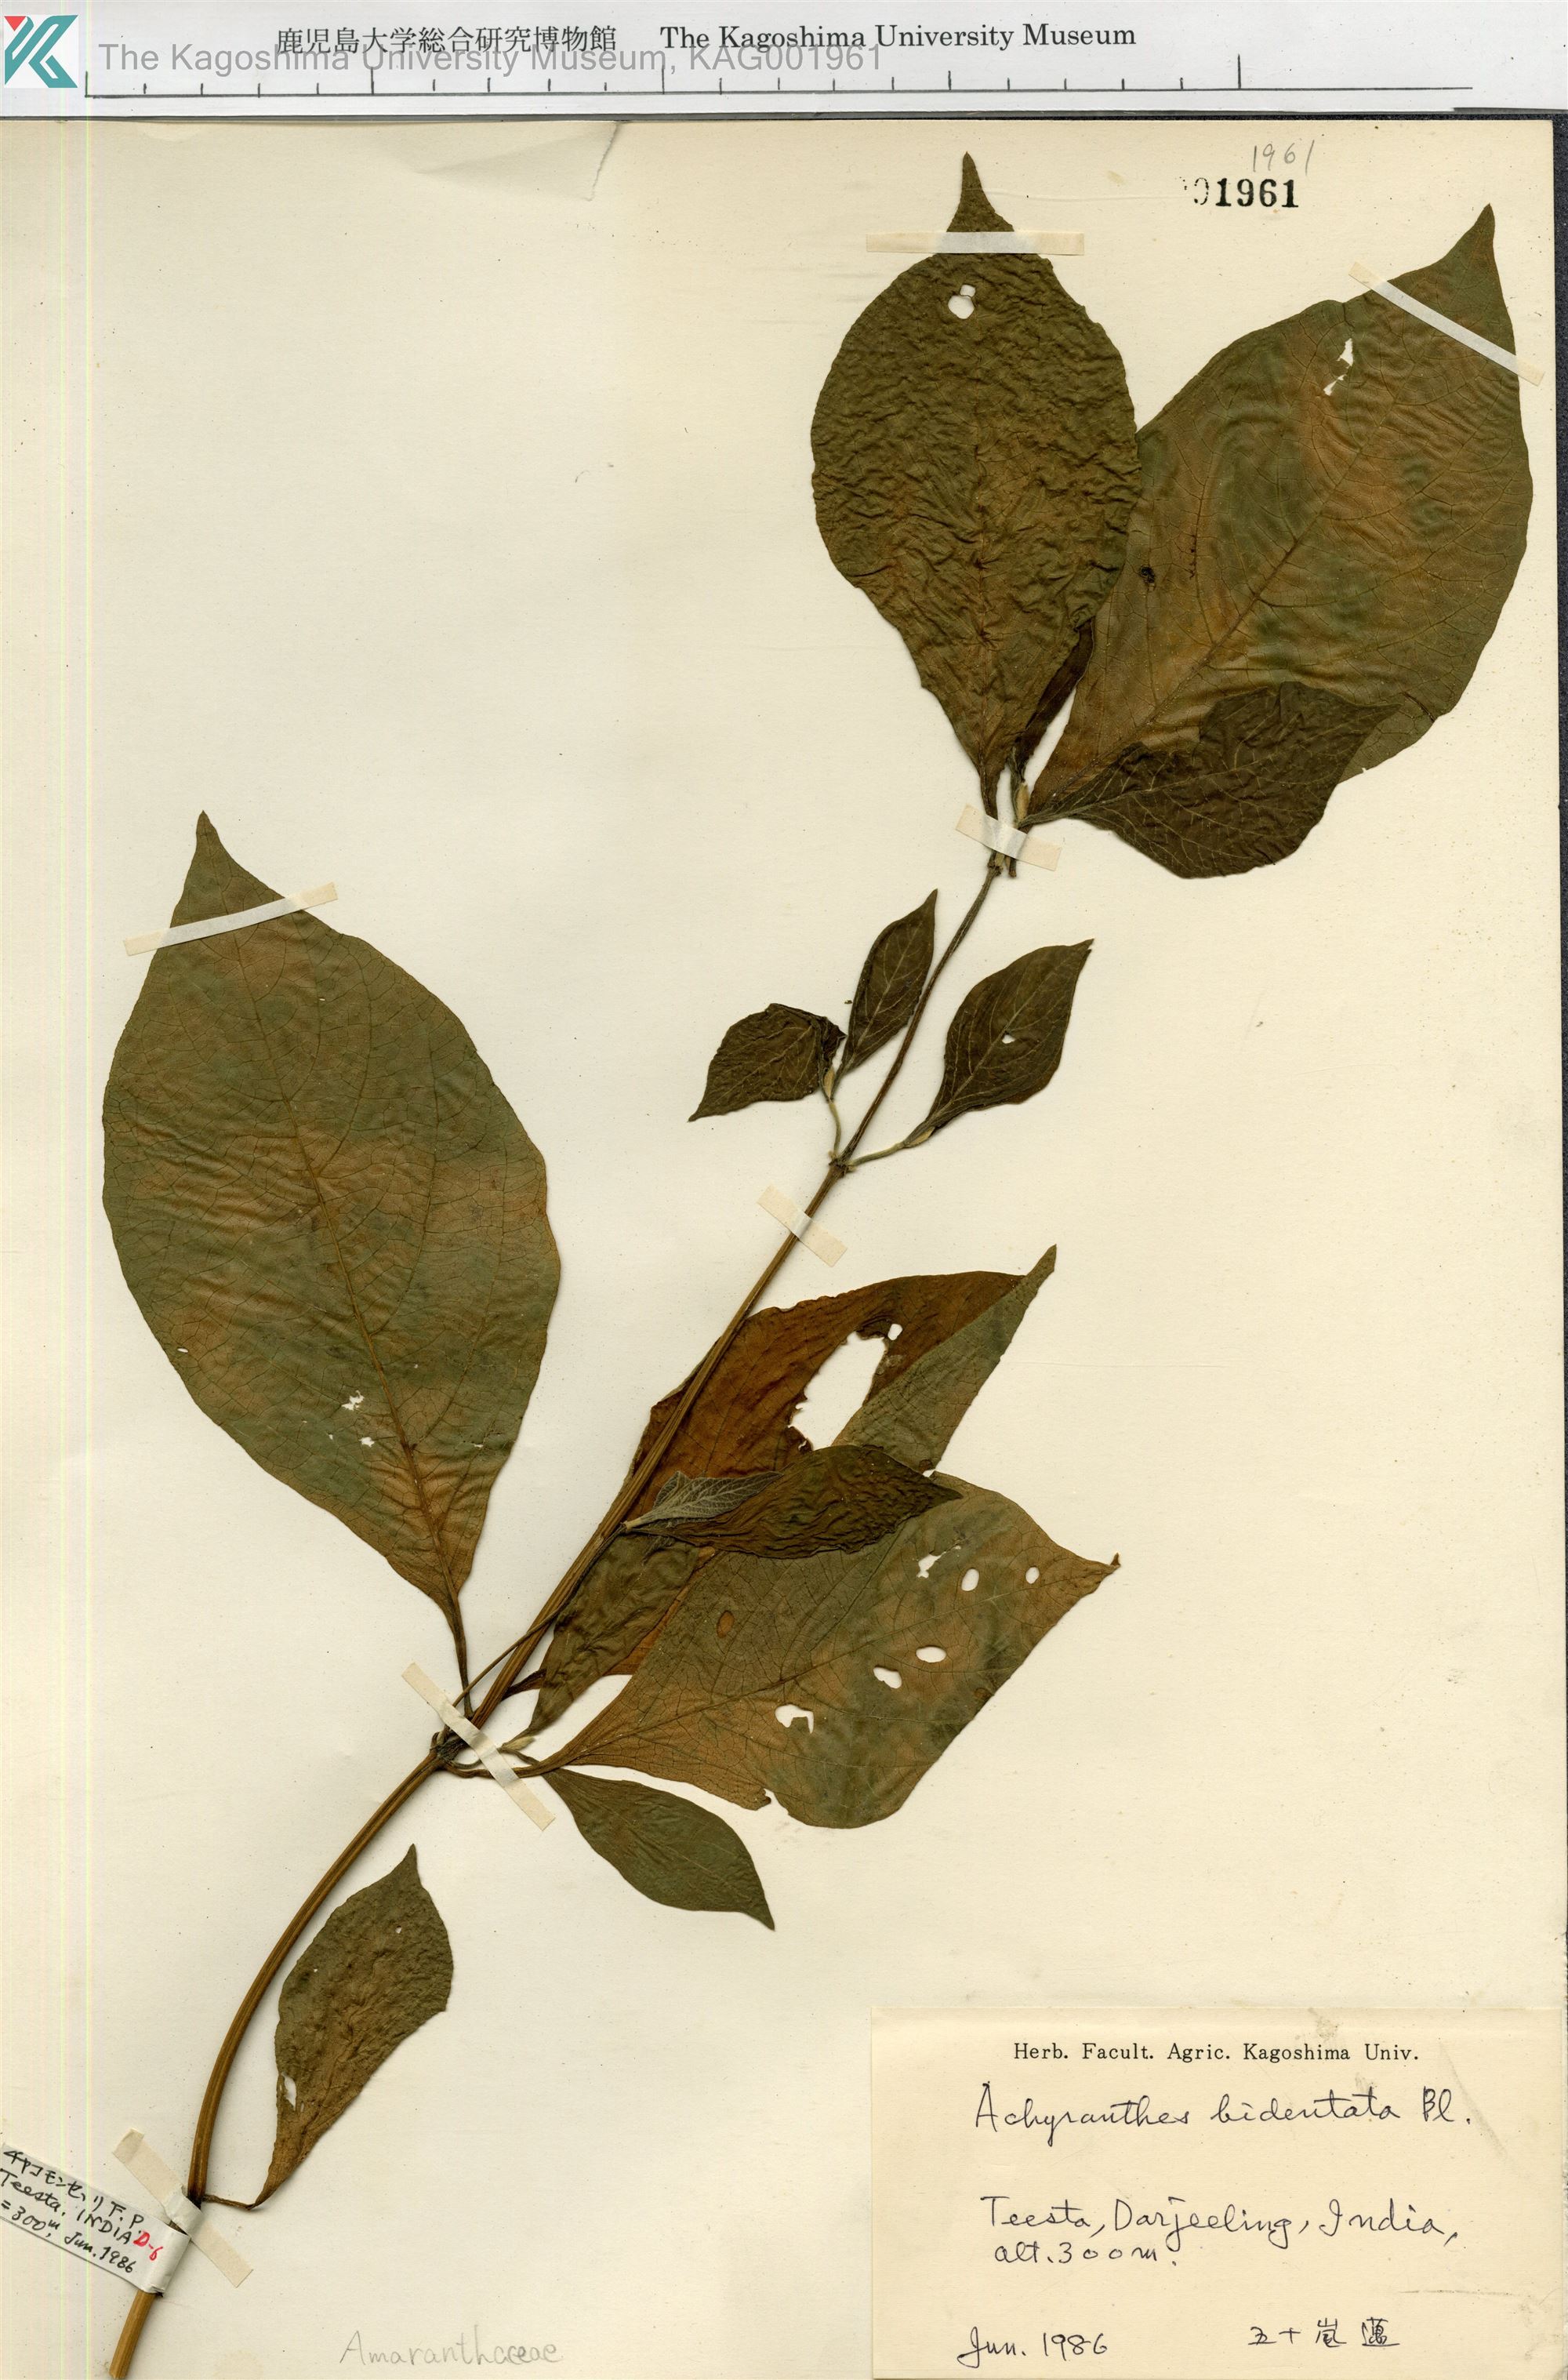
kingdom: Plantae
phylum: Tracheophyta
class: Magnoliopsida
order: Caryophyllales
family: Amaranthaceae
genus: Achyranthes
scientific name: Achyranthes bidentata
